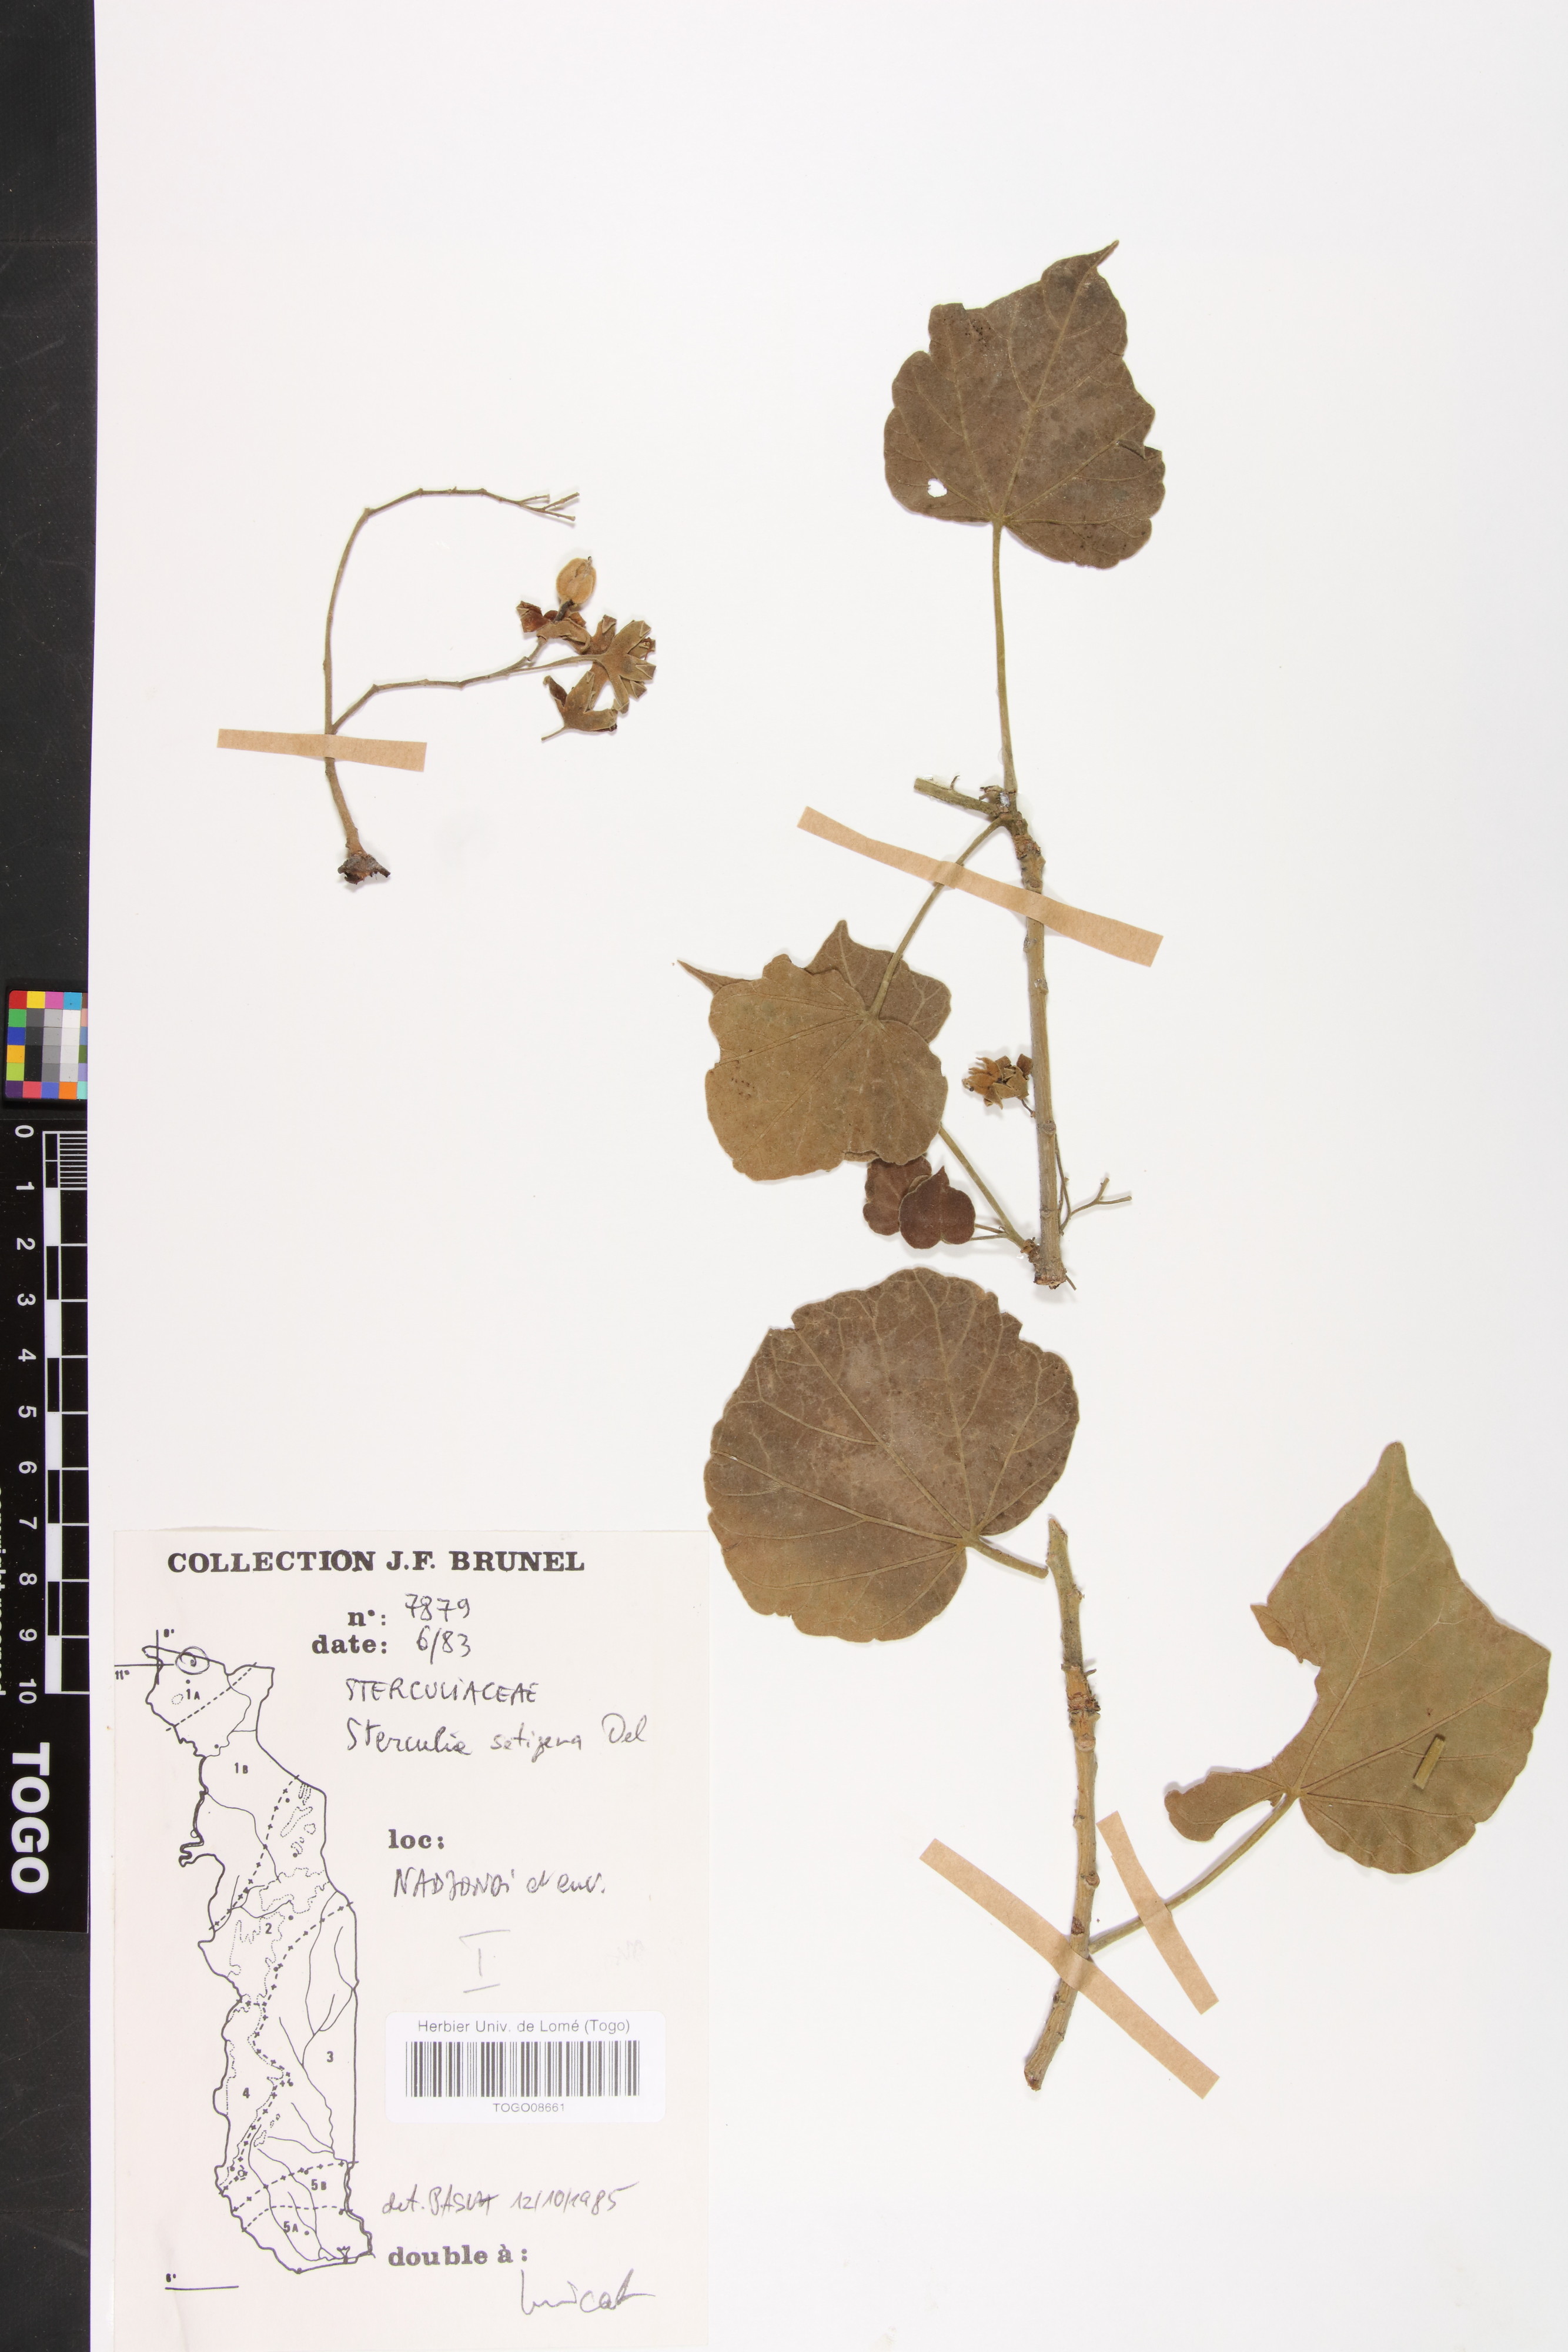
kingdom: Plantae
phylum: Tracheophyta
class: Magnoliopsida
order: Malvales
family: Malvaceae
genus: Sterculia
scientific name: Sterculia setigera
